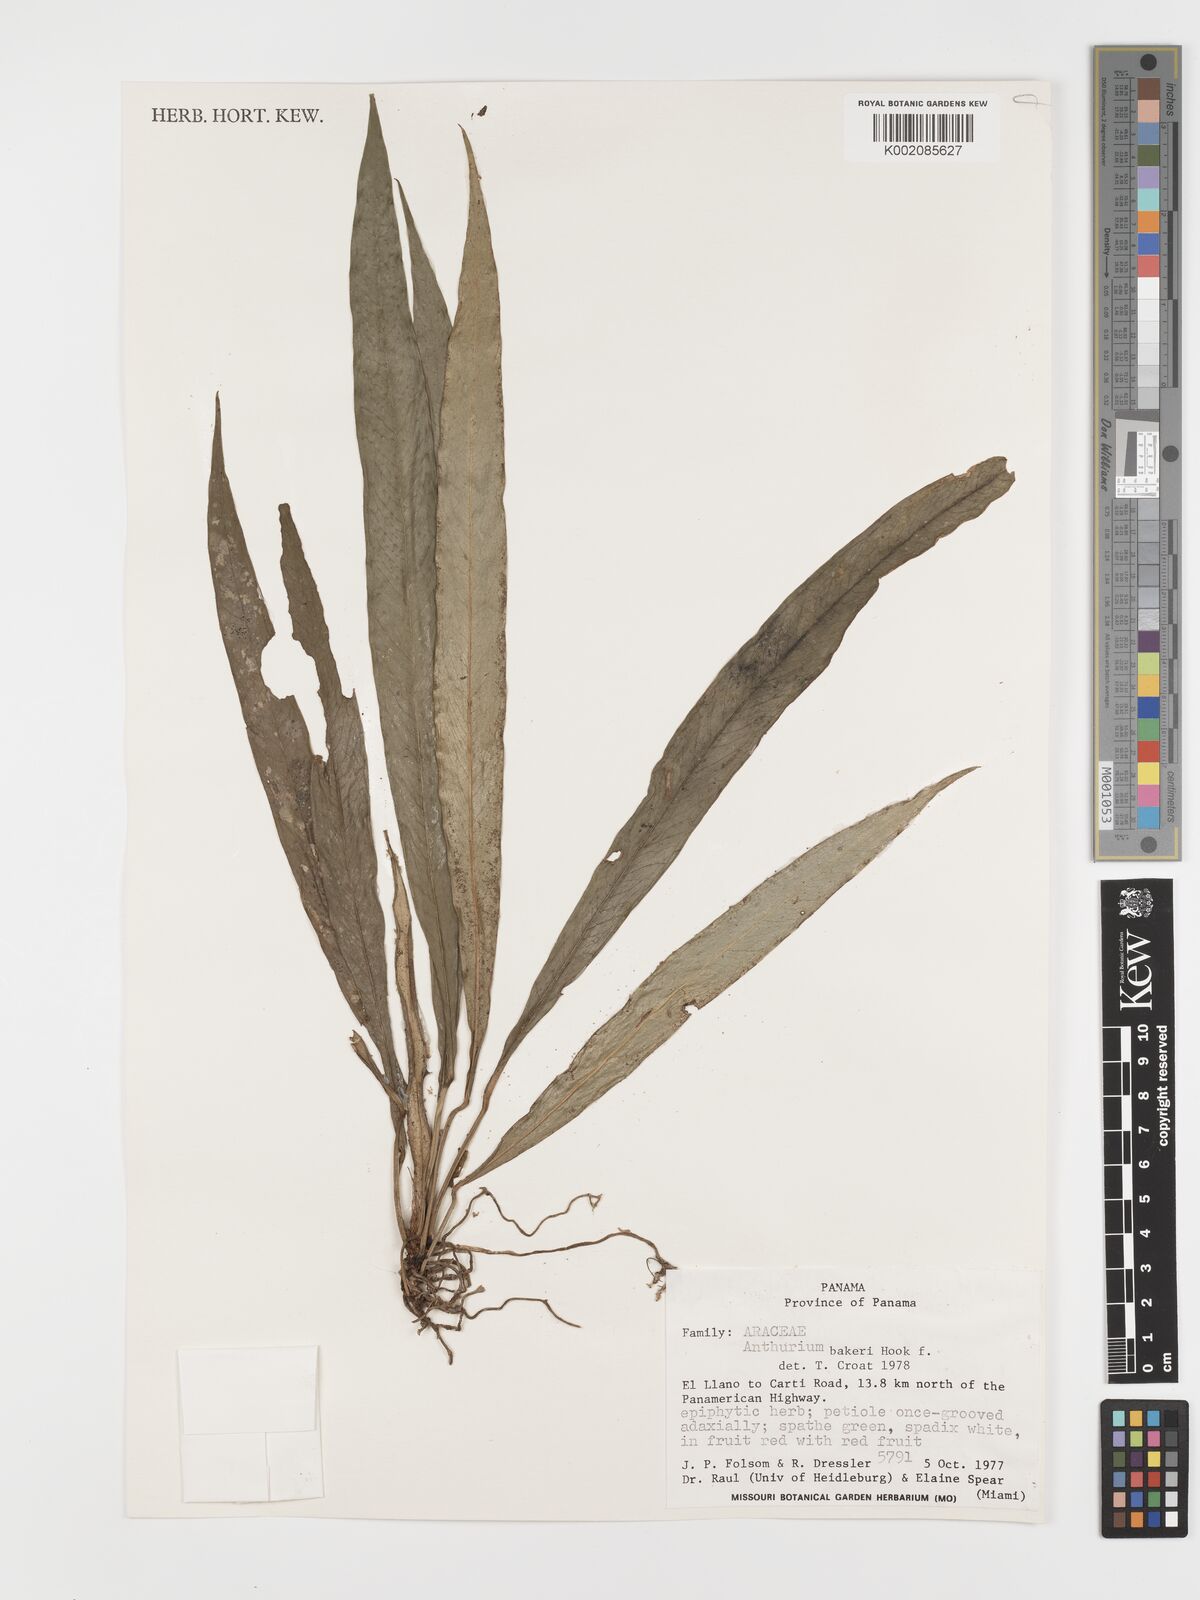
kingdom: Plantae
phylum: Tracheophyta
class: Liliopsida
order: Alismatales
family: Araceae
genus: Anthurium
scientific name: Anthurium bakeri
